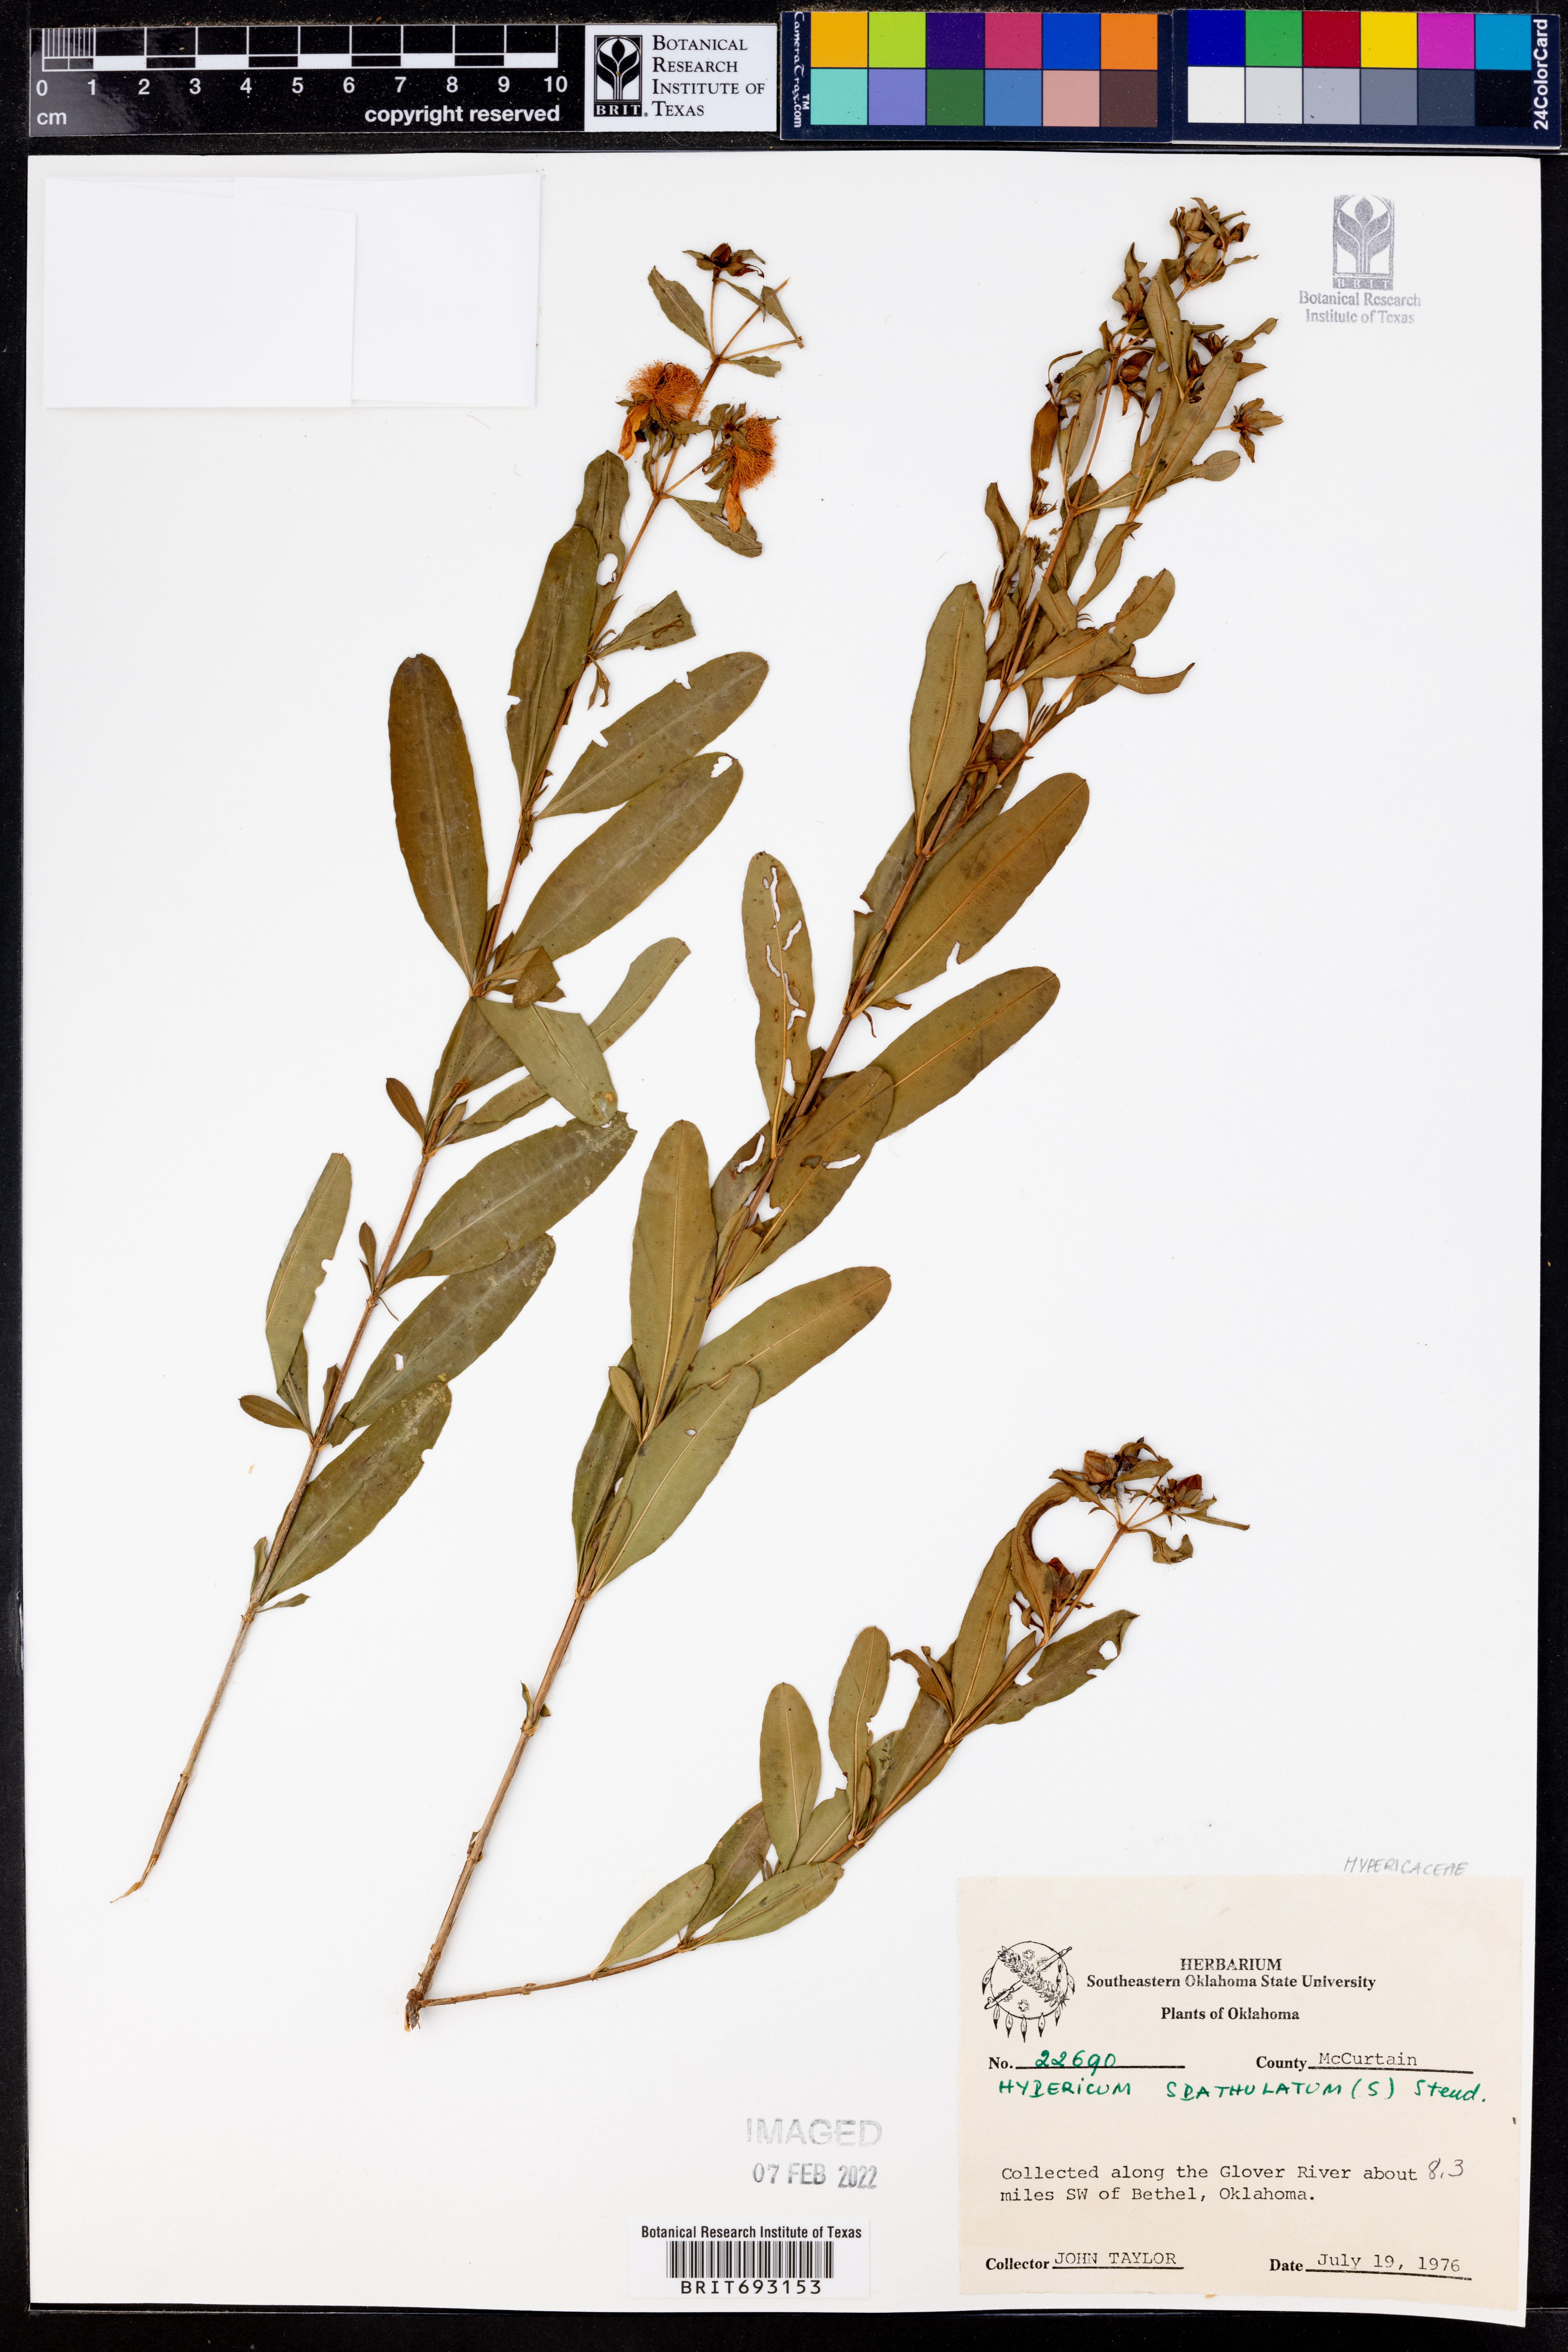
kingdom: Plantae
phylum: Tracheophyta
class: Magnoliopsida
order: Malpighiales
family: Hypericaceae
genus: Hypericum
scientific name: Hypericum
